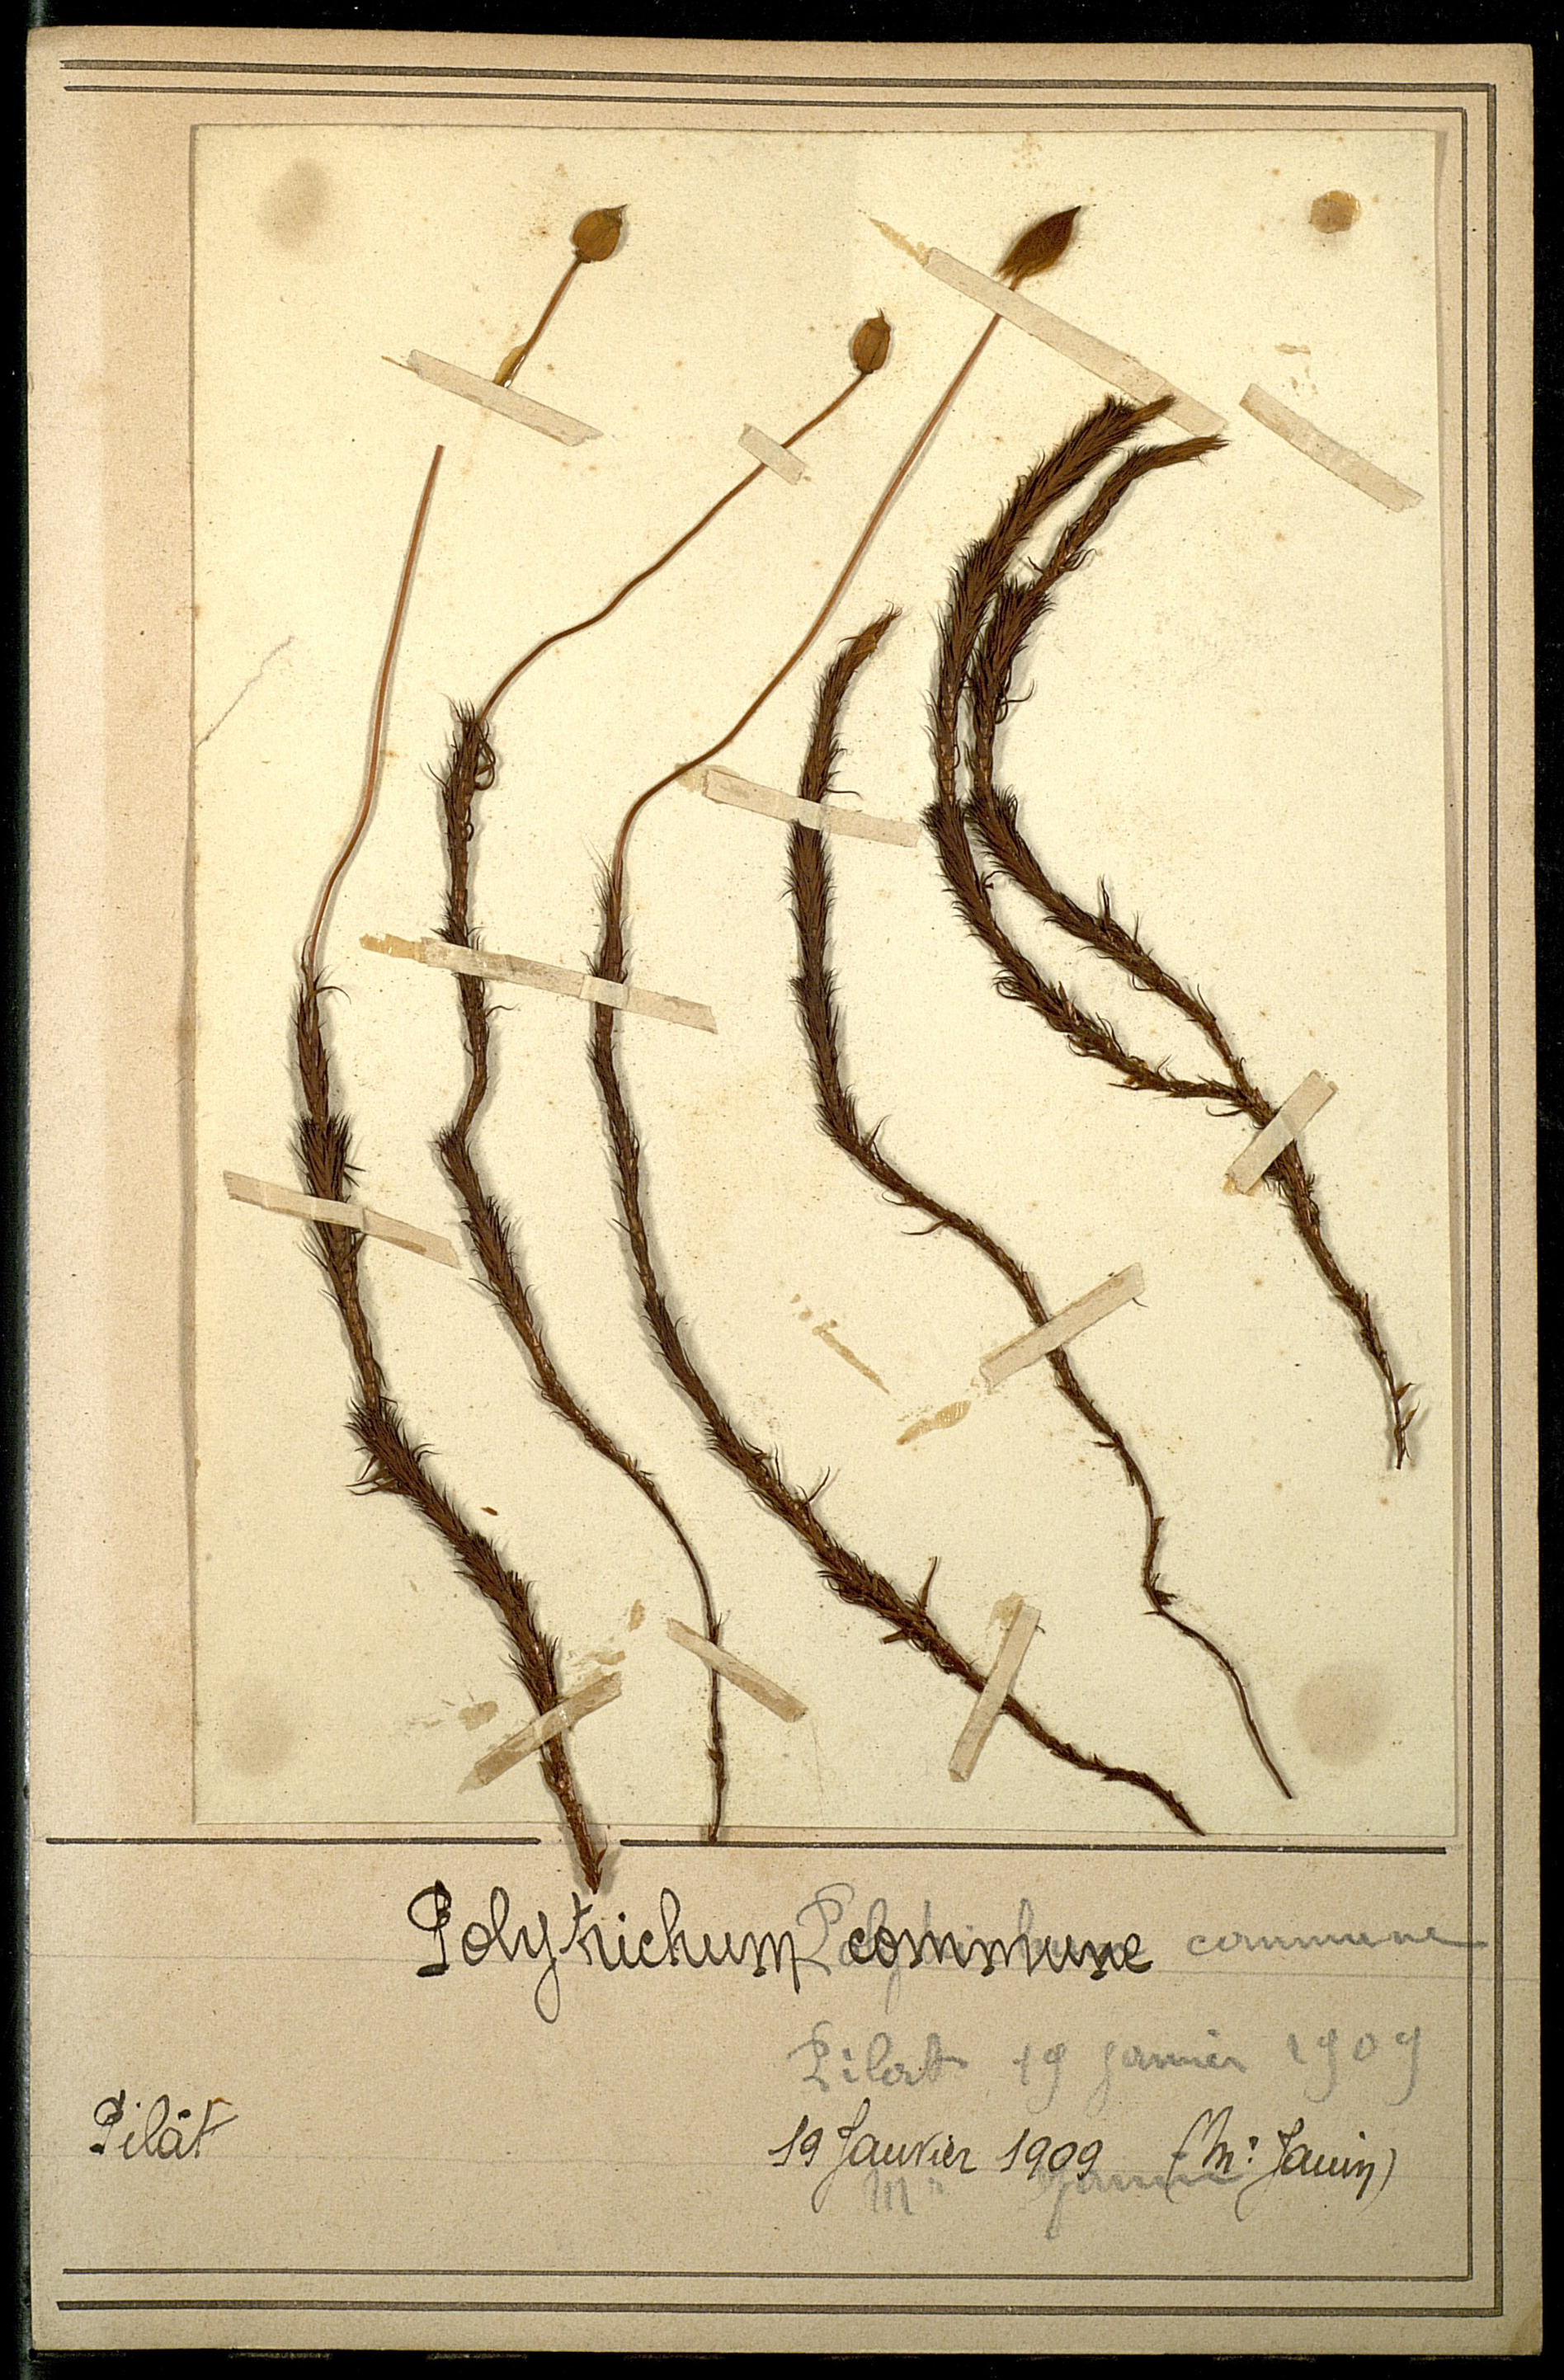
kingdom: Plantae
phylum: Bryophyta
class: Polytrichopsida
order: Polytrichales
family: Polytrichaceae
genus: Polytrichum
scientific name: Polytrichum commune
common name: Common haircap
